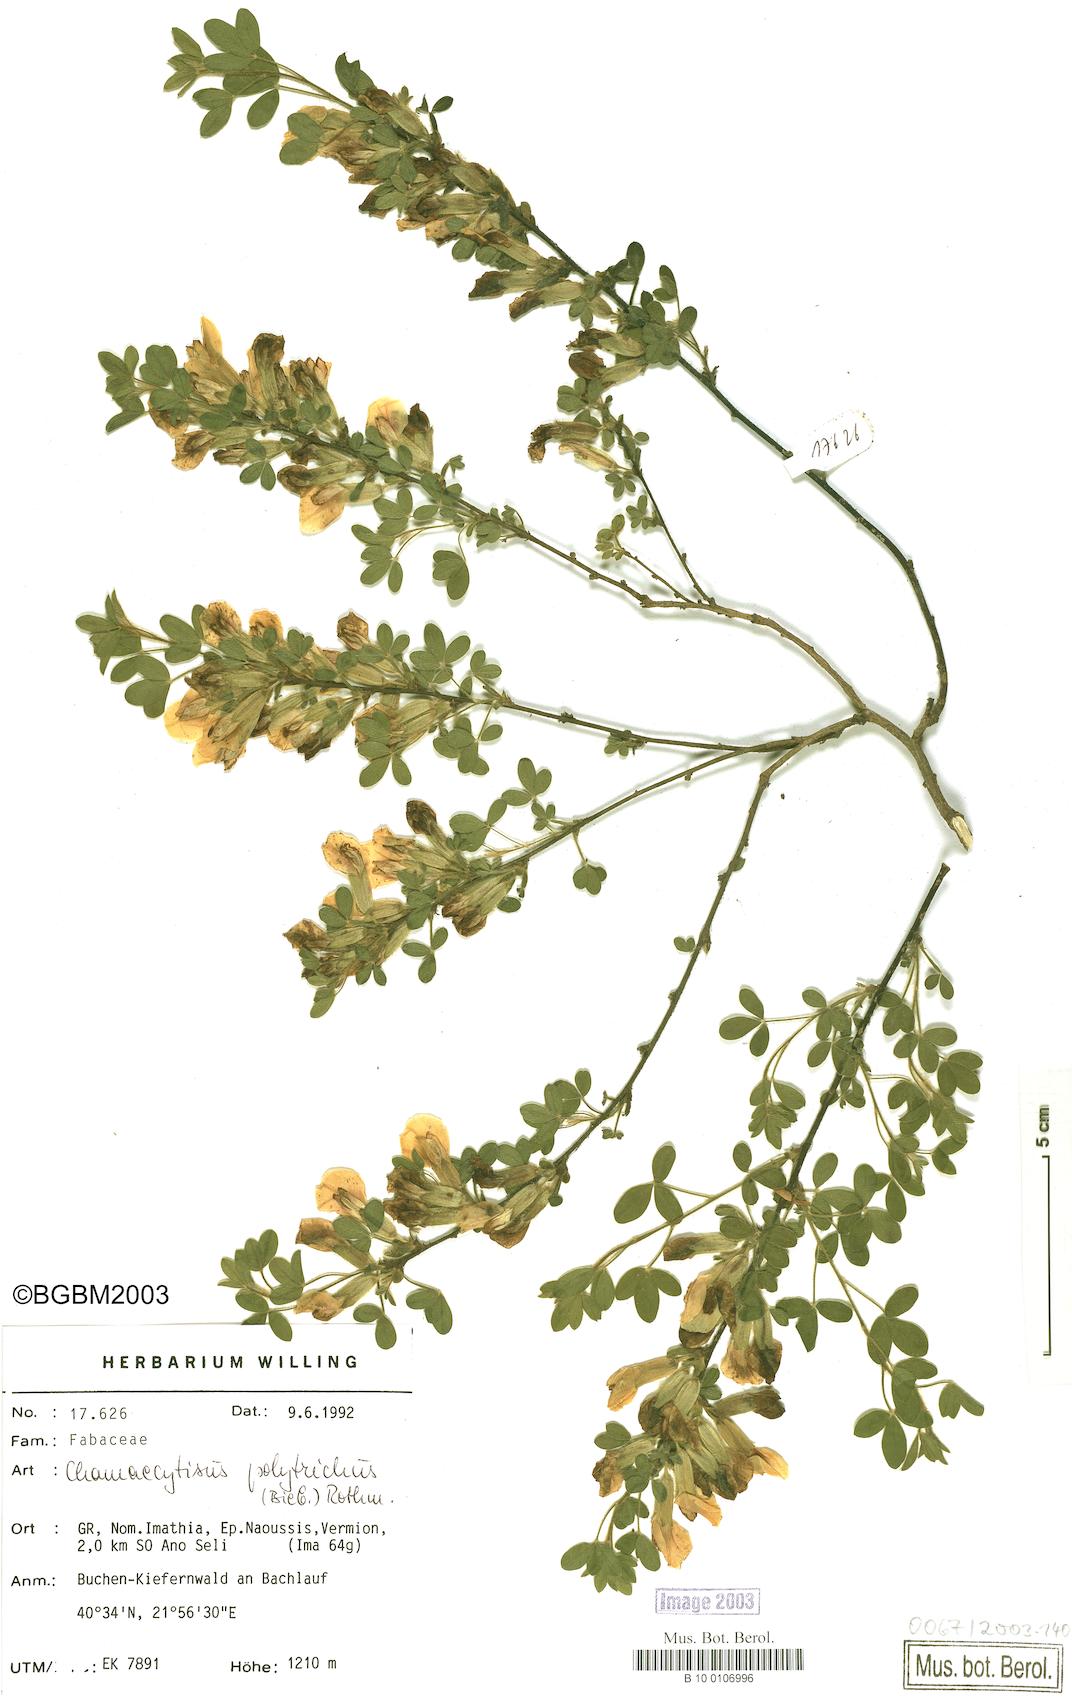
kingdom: Plantae
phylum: Tracheophyta
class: Magnoliopsida
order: Fabales
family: Fabaceae
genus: Chamaecytisus
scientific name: Chamaecytisus hirsutus
